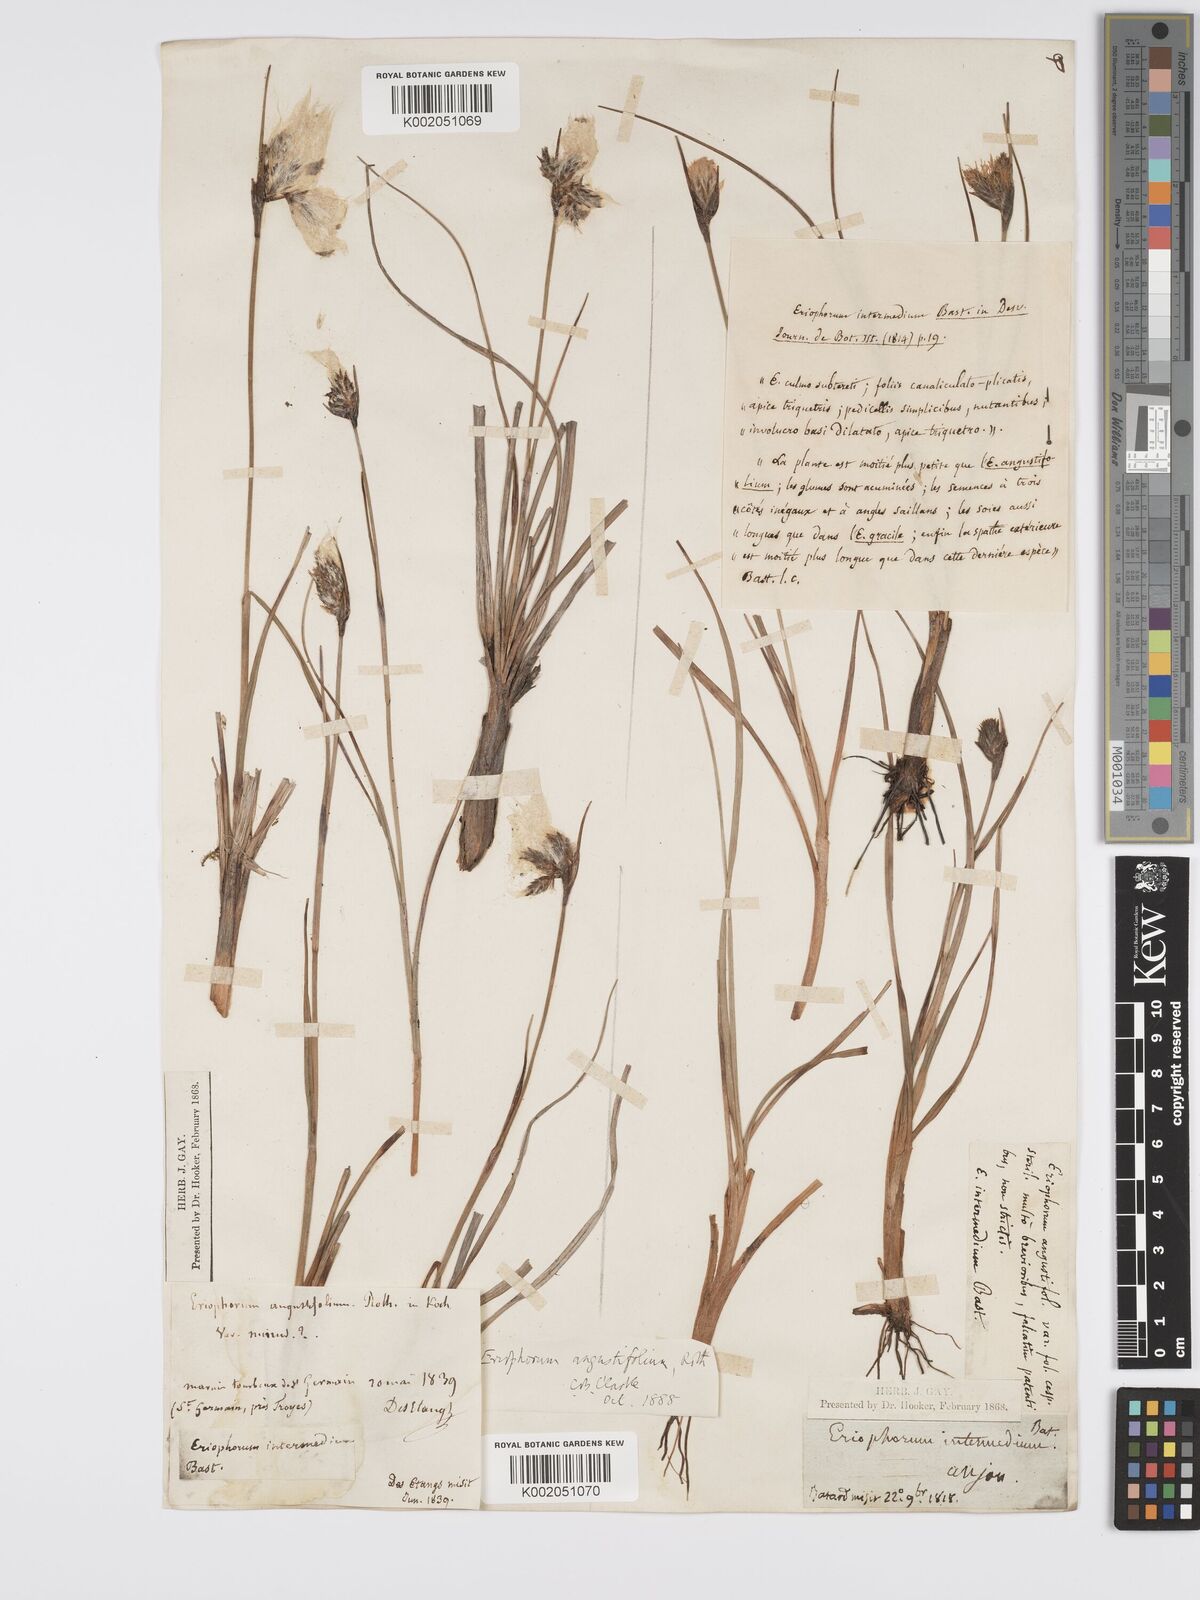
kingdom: Plantae
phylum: Tracheophyta
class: Liliopsida
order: Poales
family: Cyperaceae
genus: Eriophorum
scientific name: Eriophorum angustifolium
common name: Common cottongrass
